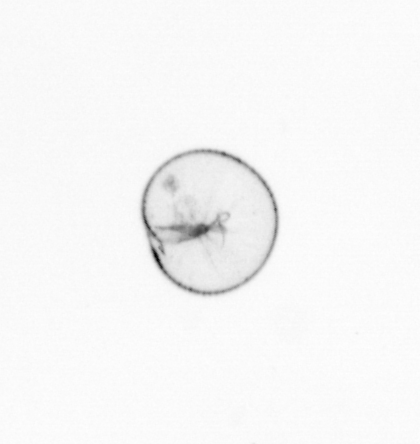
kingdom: Chromista
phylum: Myzozoa
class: Dinophyceae
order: Noctilucales
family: Noctilucaceae
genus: Noctiluca
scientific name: Noctiluca scintillans
